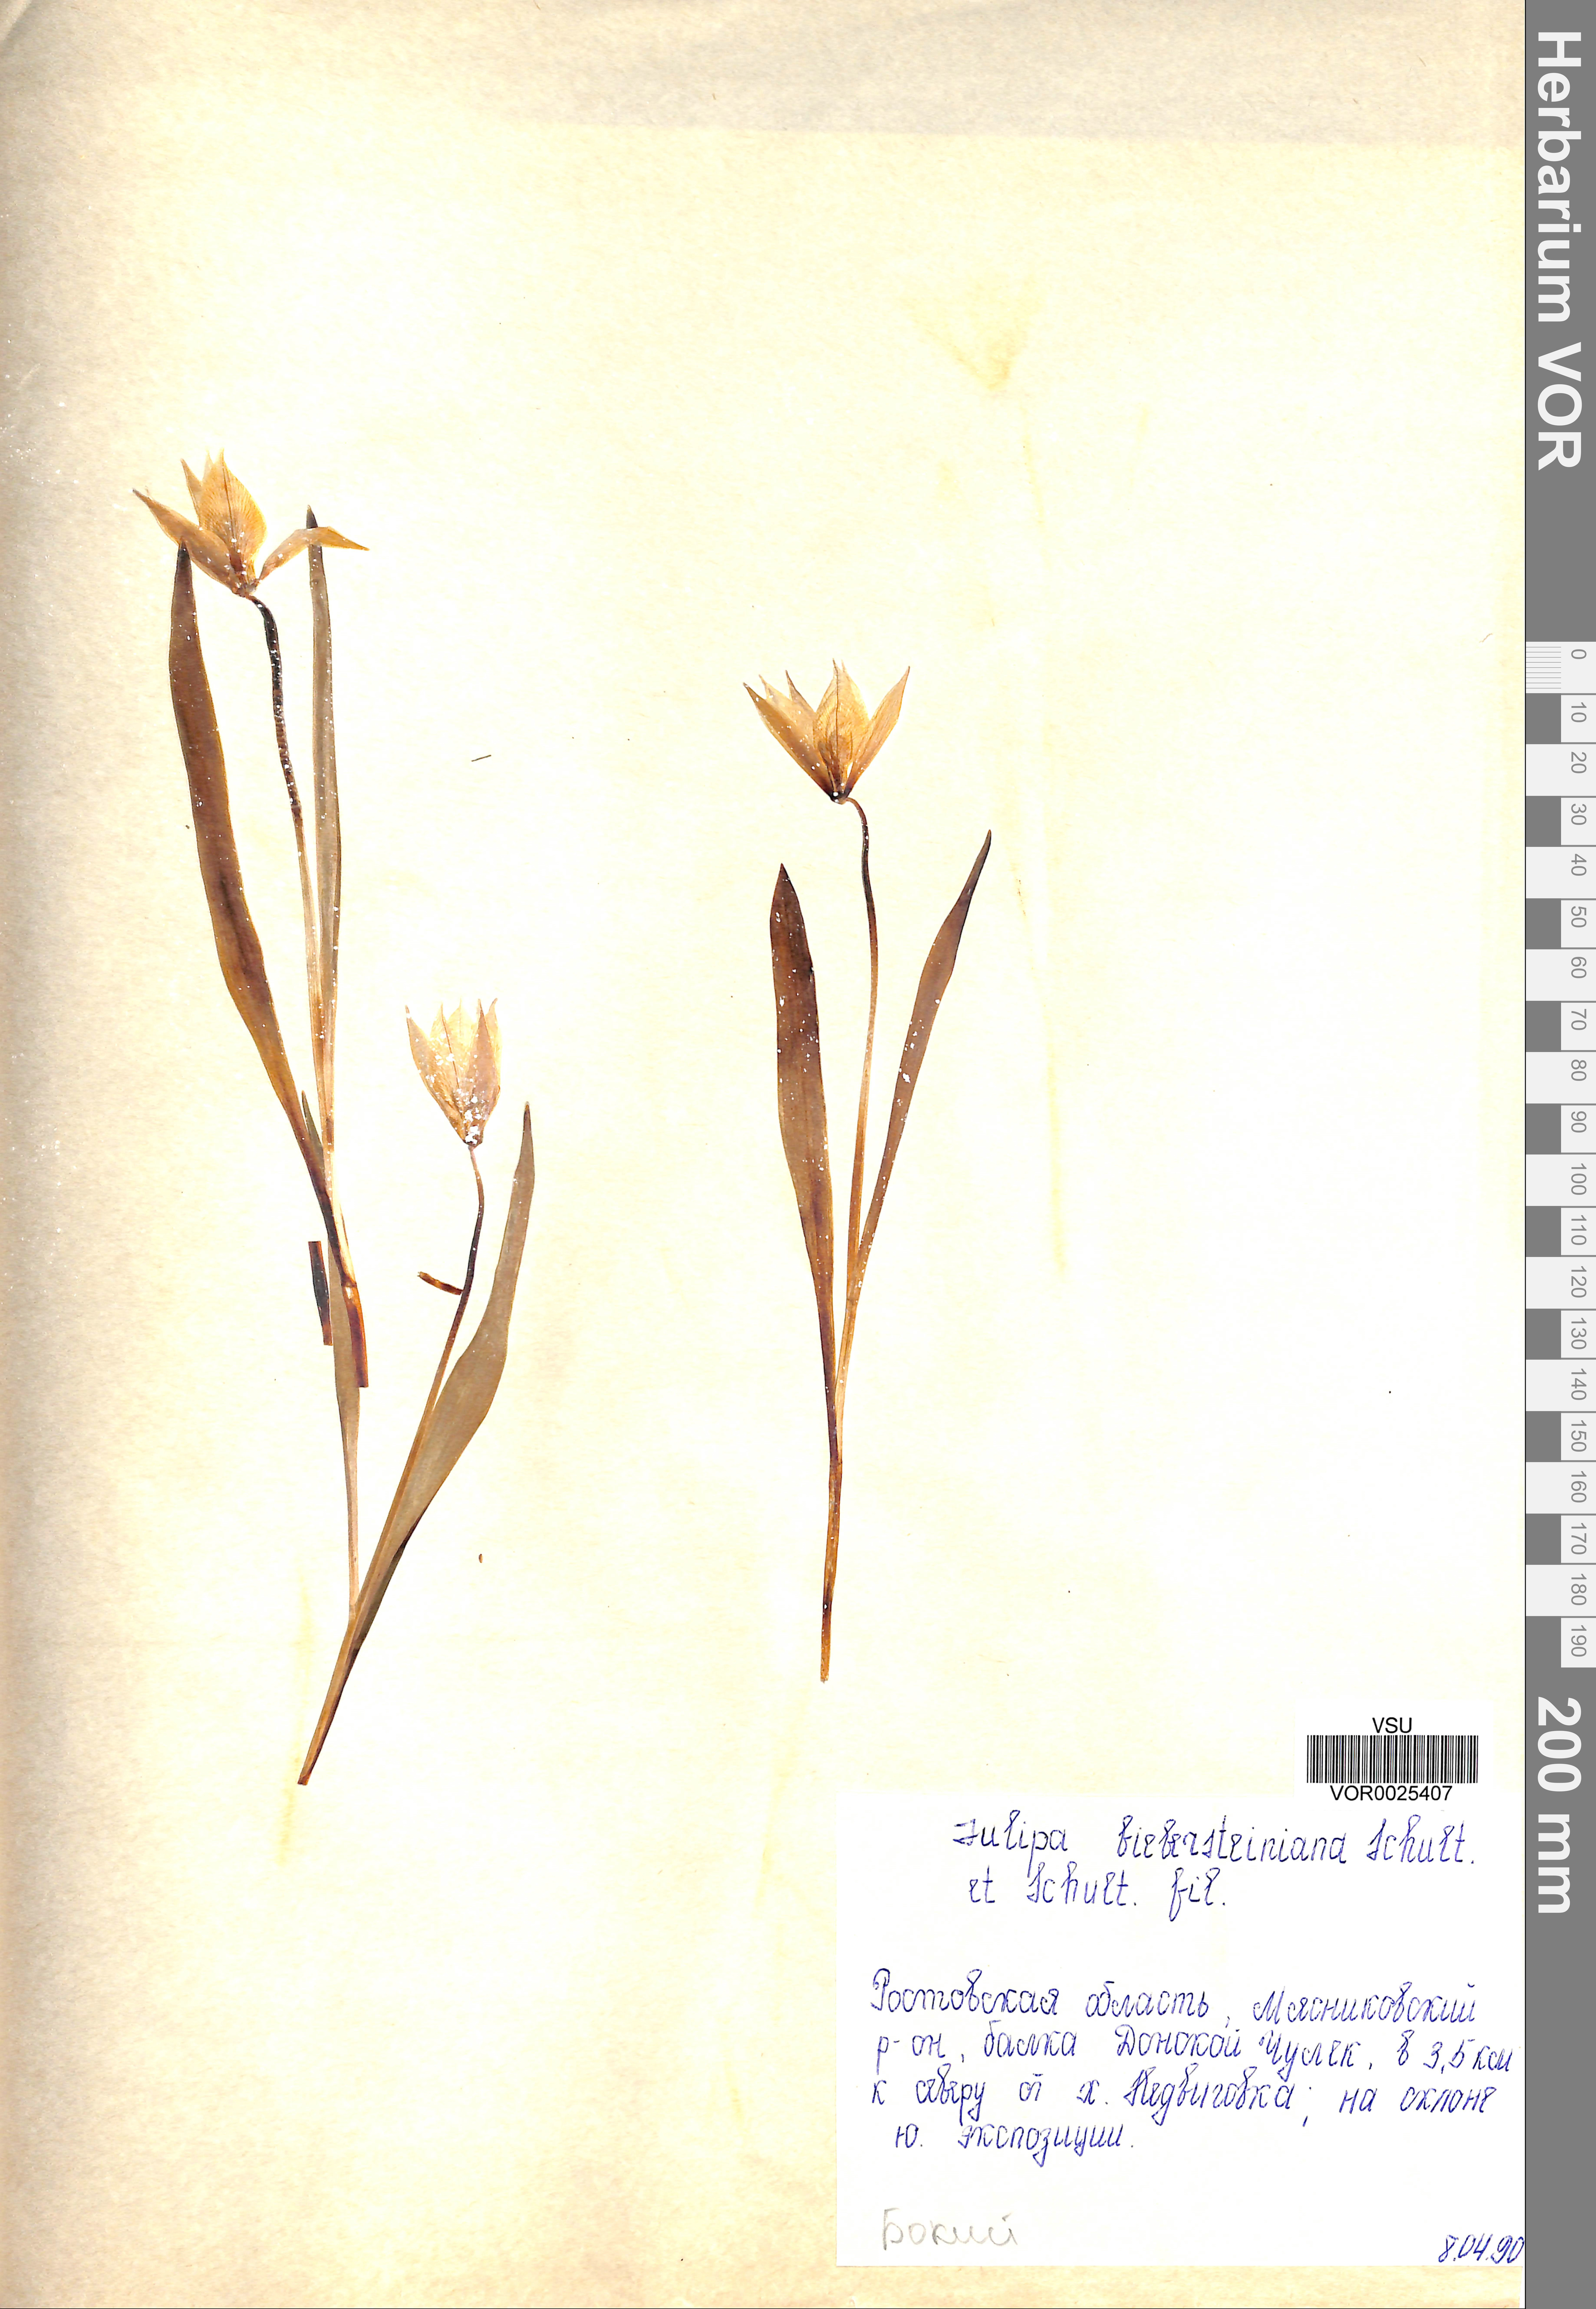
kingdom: Plantae
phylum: Tracheophyta
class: Liliopsida
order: Liliales
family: Liliaceae
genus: Tulipa
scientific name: Tulipa sylvestris
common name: Wild tulip
